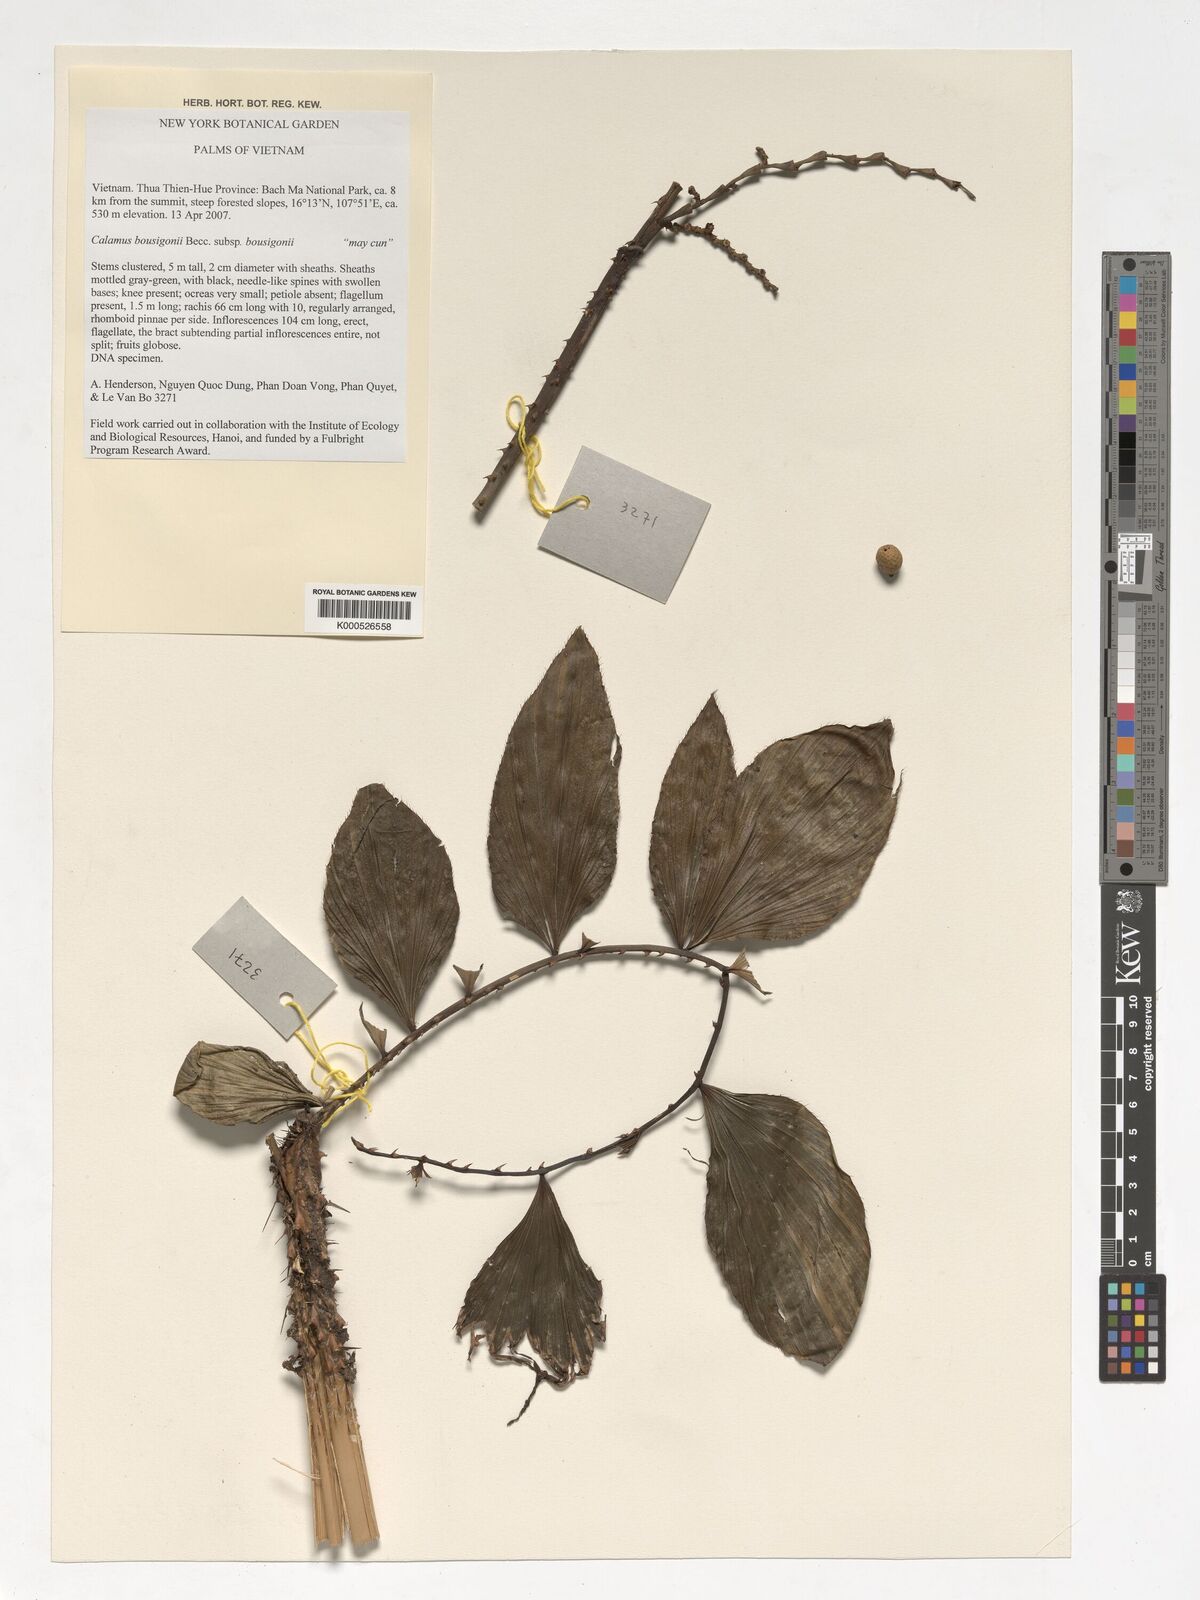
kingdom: Plantae
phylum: Tracheophyta
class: Liliopsida
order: Arecales
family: Arecaceae
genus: Calamus
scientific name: Calamus bousigonii
